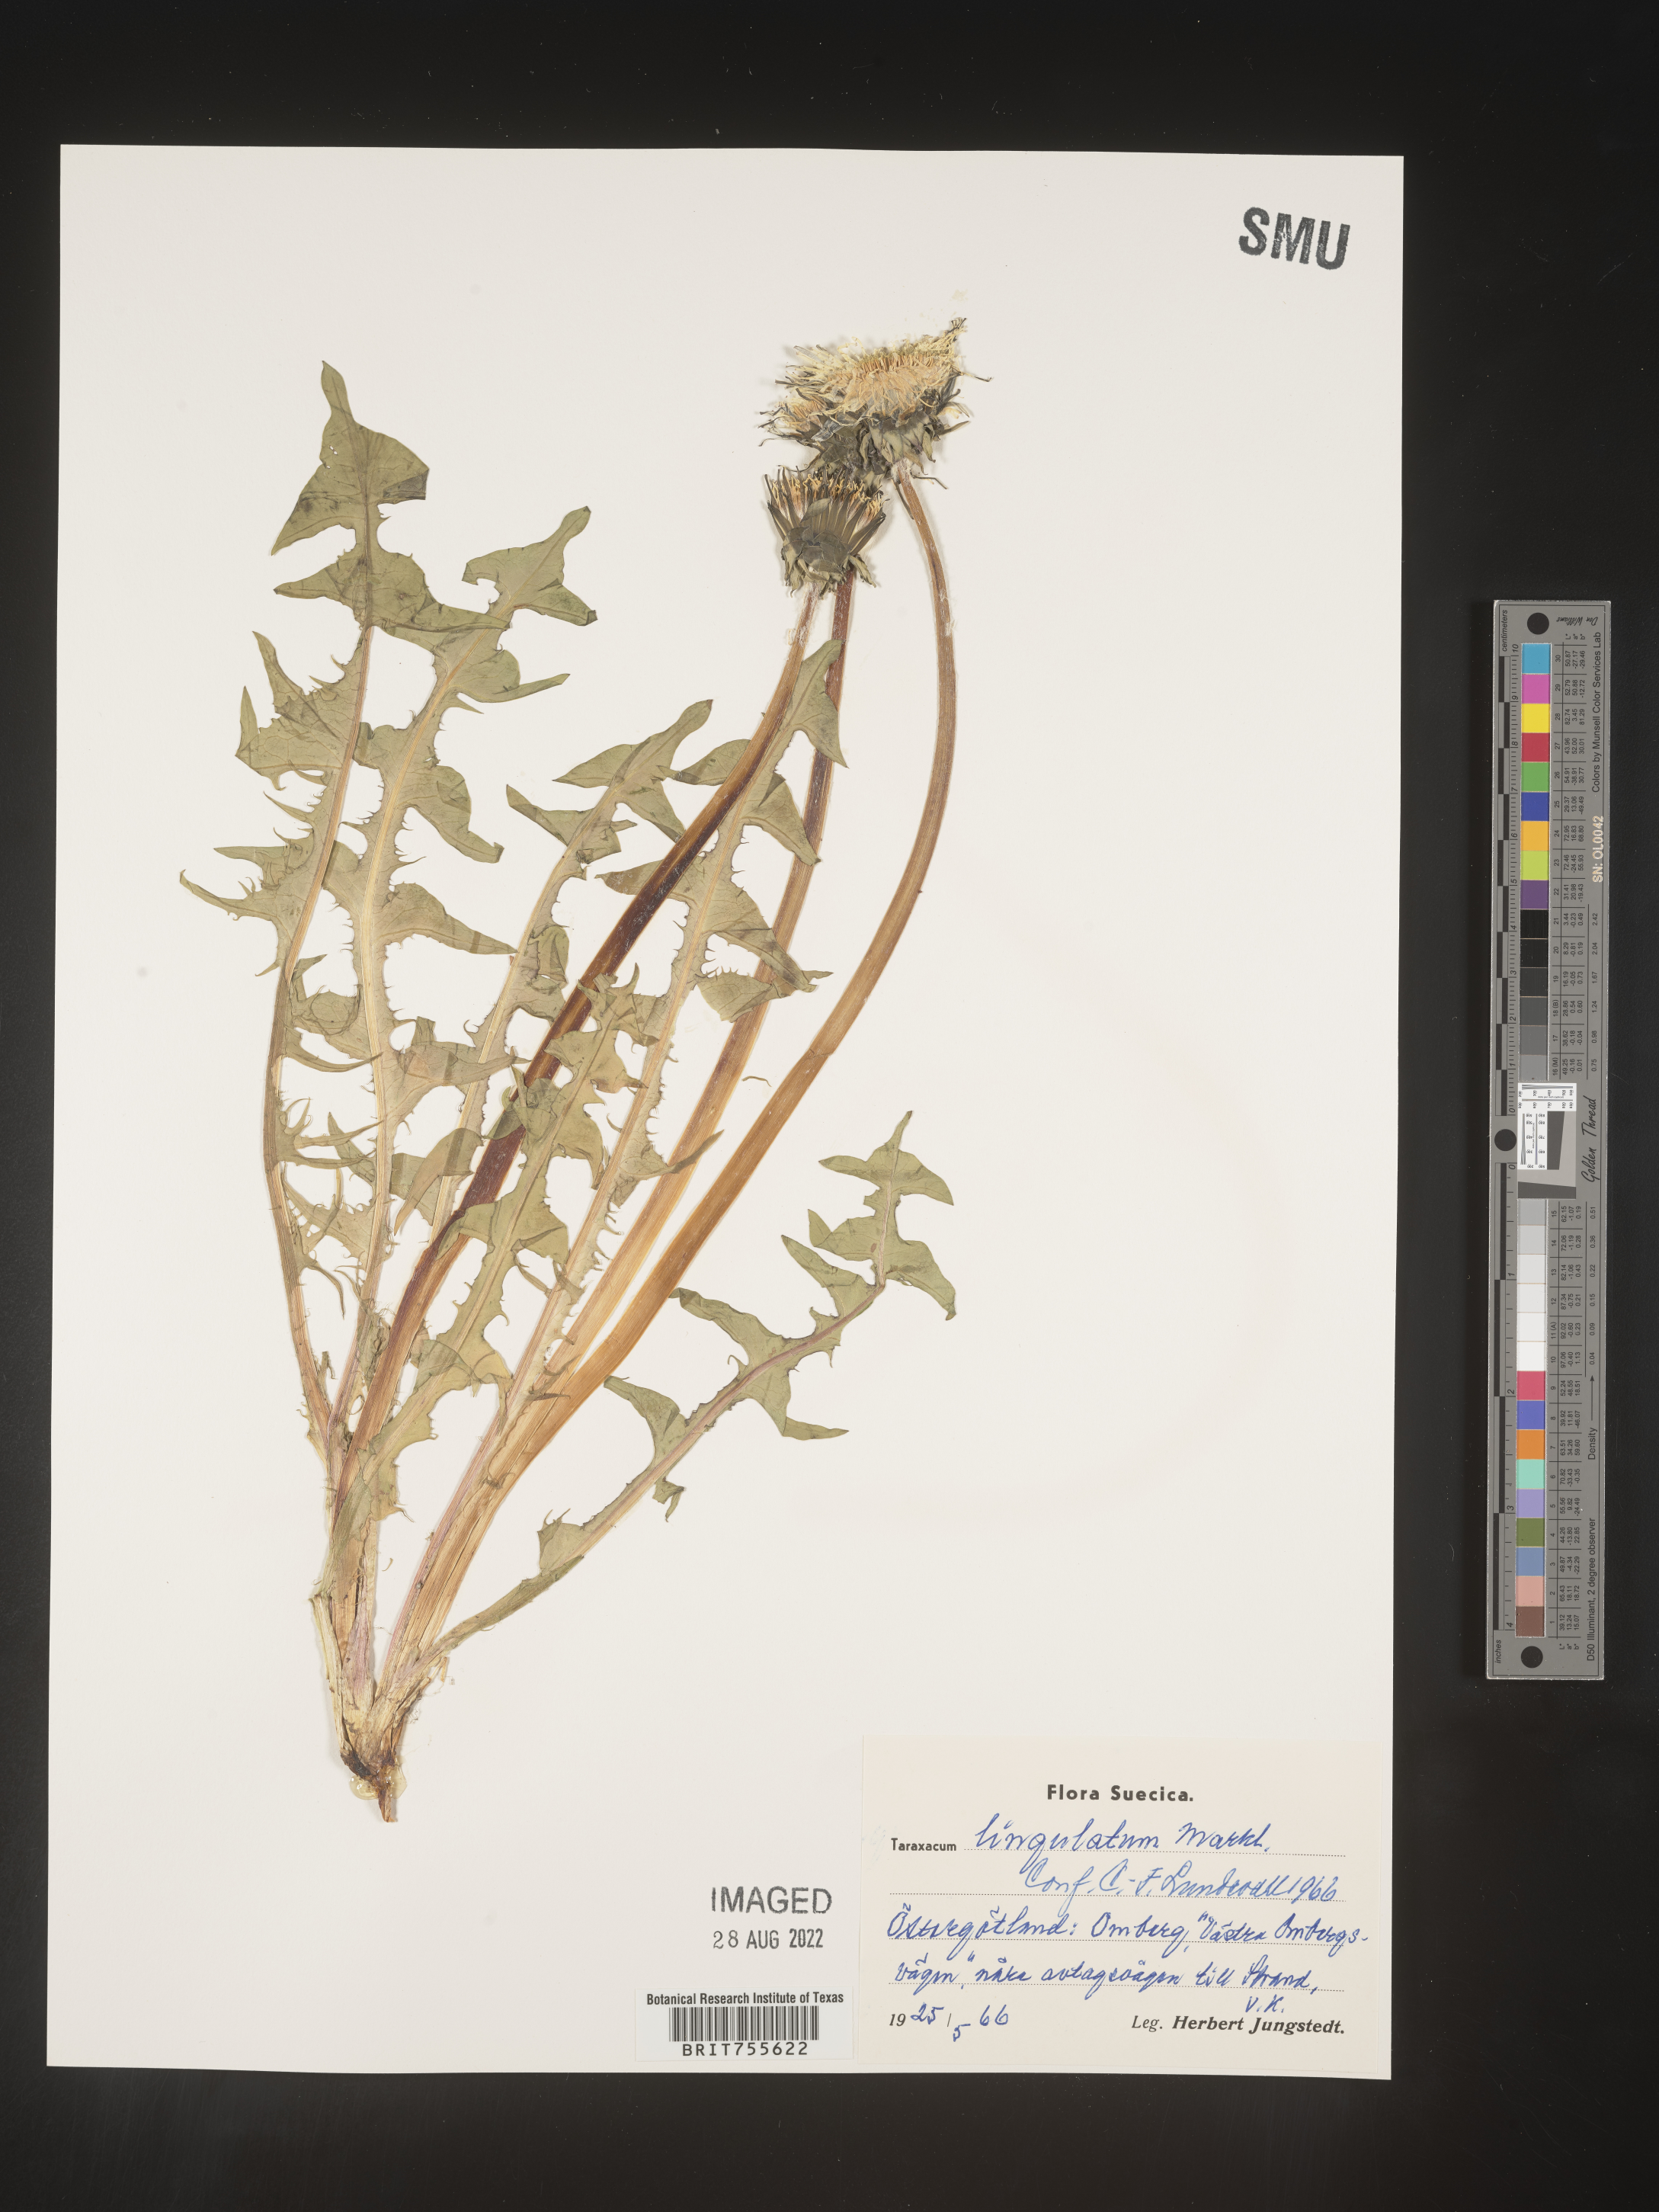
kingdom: Plantae
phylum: Tracheophyta
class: Magnoliopsida
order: Asterales
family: Asteraceae
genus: Taraxacum
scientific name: Taraxacum
